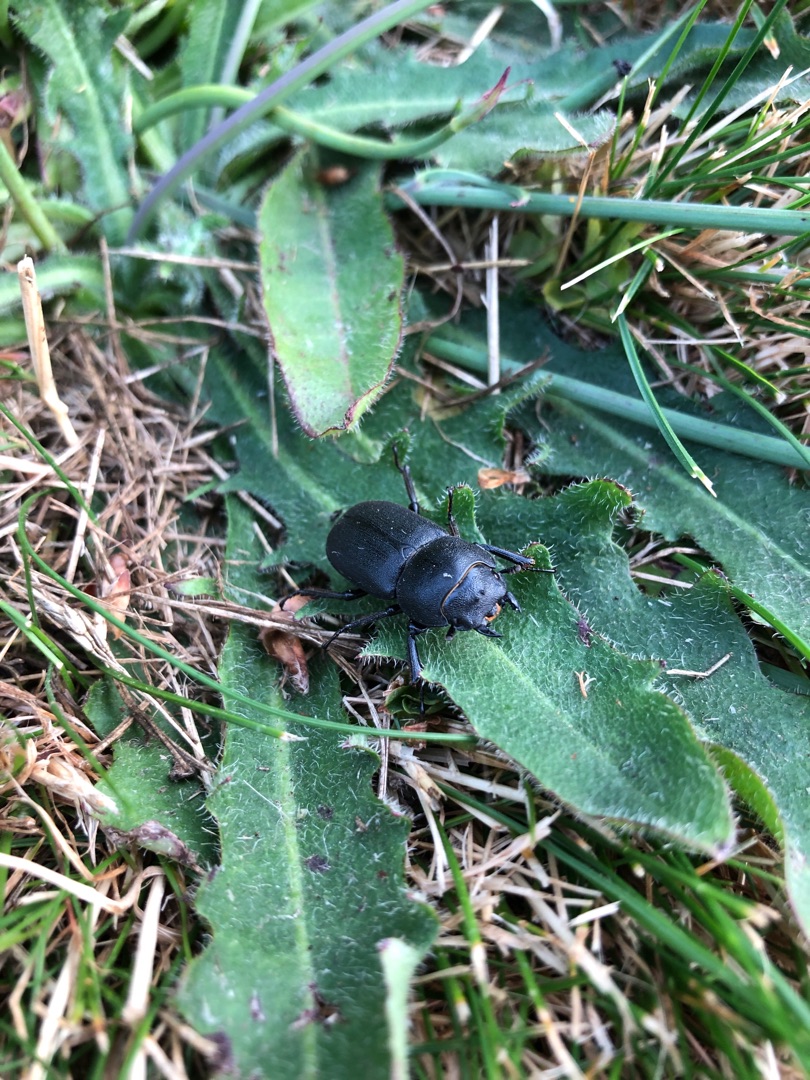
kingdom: Animalia
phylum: Arthropoda
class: Insecta
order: Coleoptera
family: Lucanidae
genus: Dorcus
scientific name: Dorcus parallelipipedus
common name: Bøghjort
